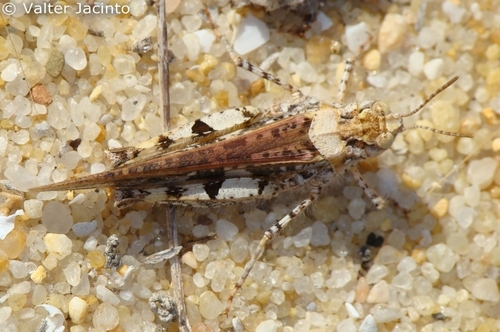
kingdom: Animalia
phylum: Arthropoda
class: Insecta
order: Orthoptera
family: Acrididae
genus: Acrotylus
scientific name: Acrotylus insubricus
